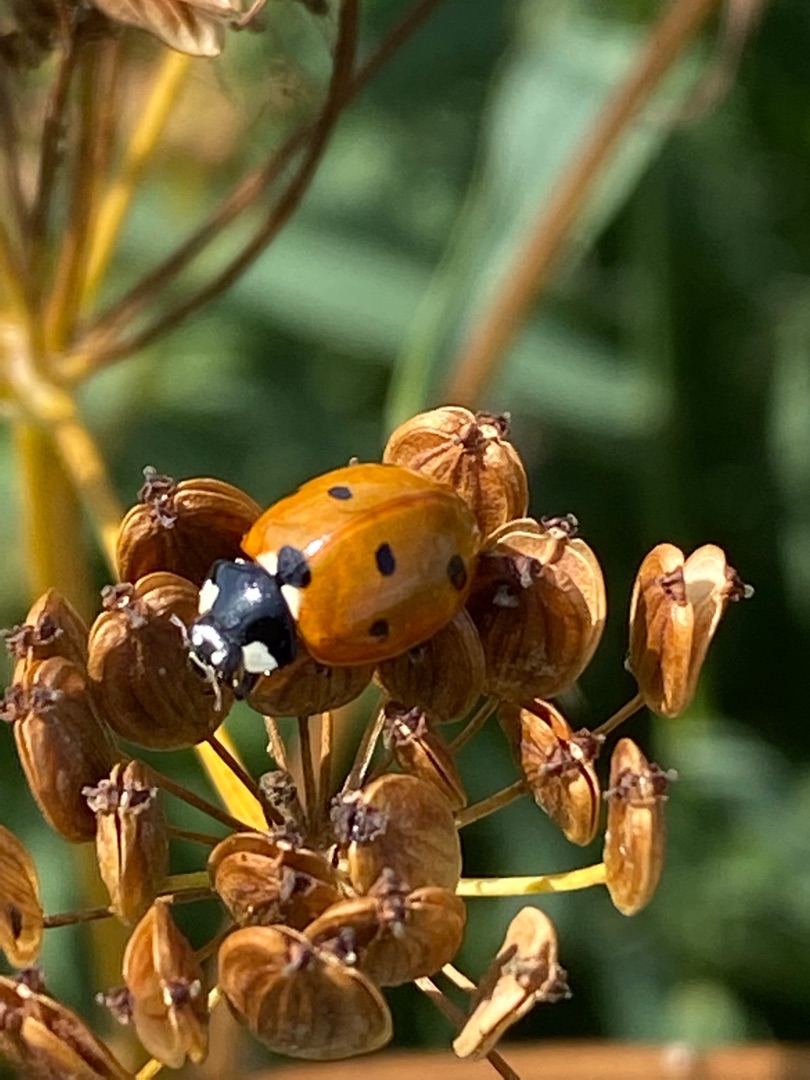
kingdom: Animalia
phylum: Arthropoda
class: Insecta
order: Coleoptera
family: Coccinellidae
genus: Coccinella
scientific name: Coccinella septempunctata
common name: Syvplettet mariehøne
